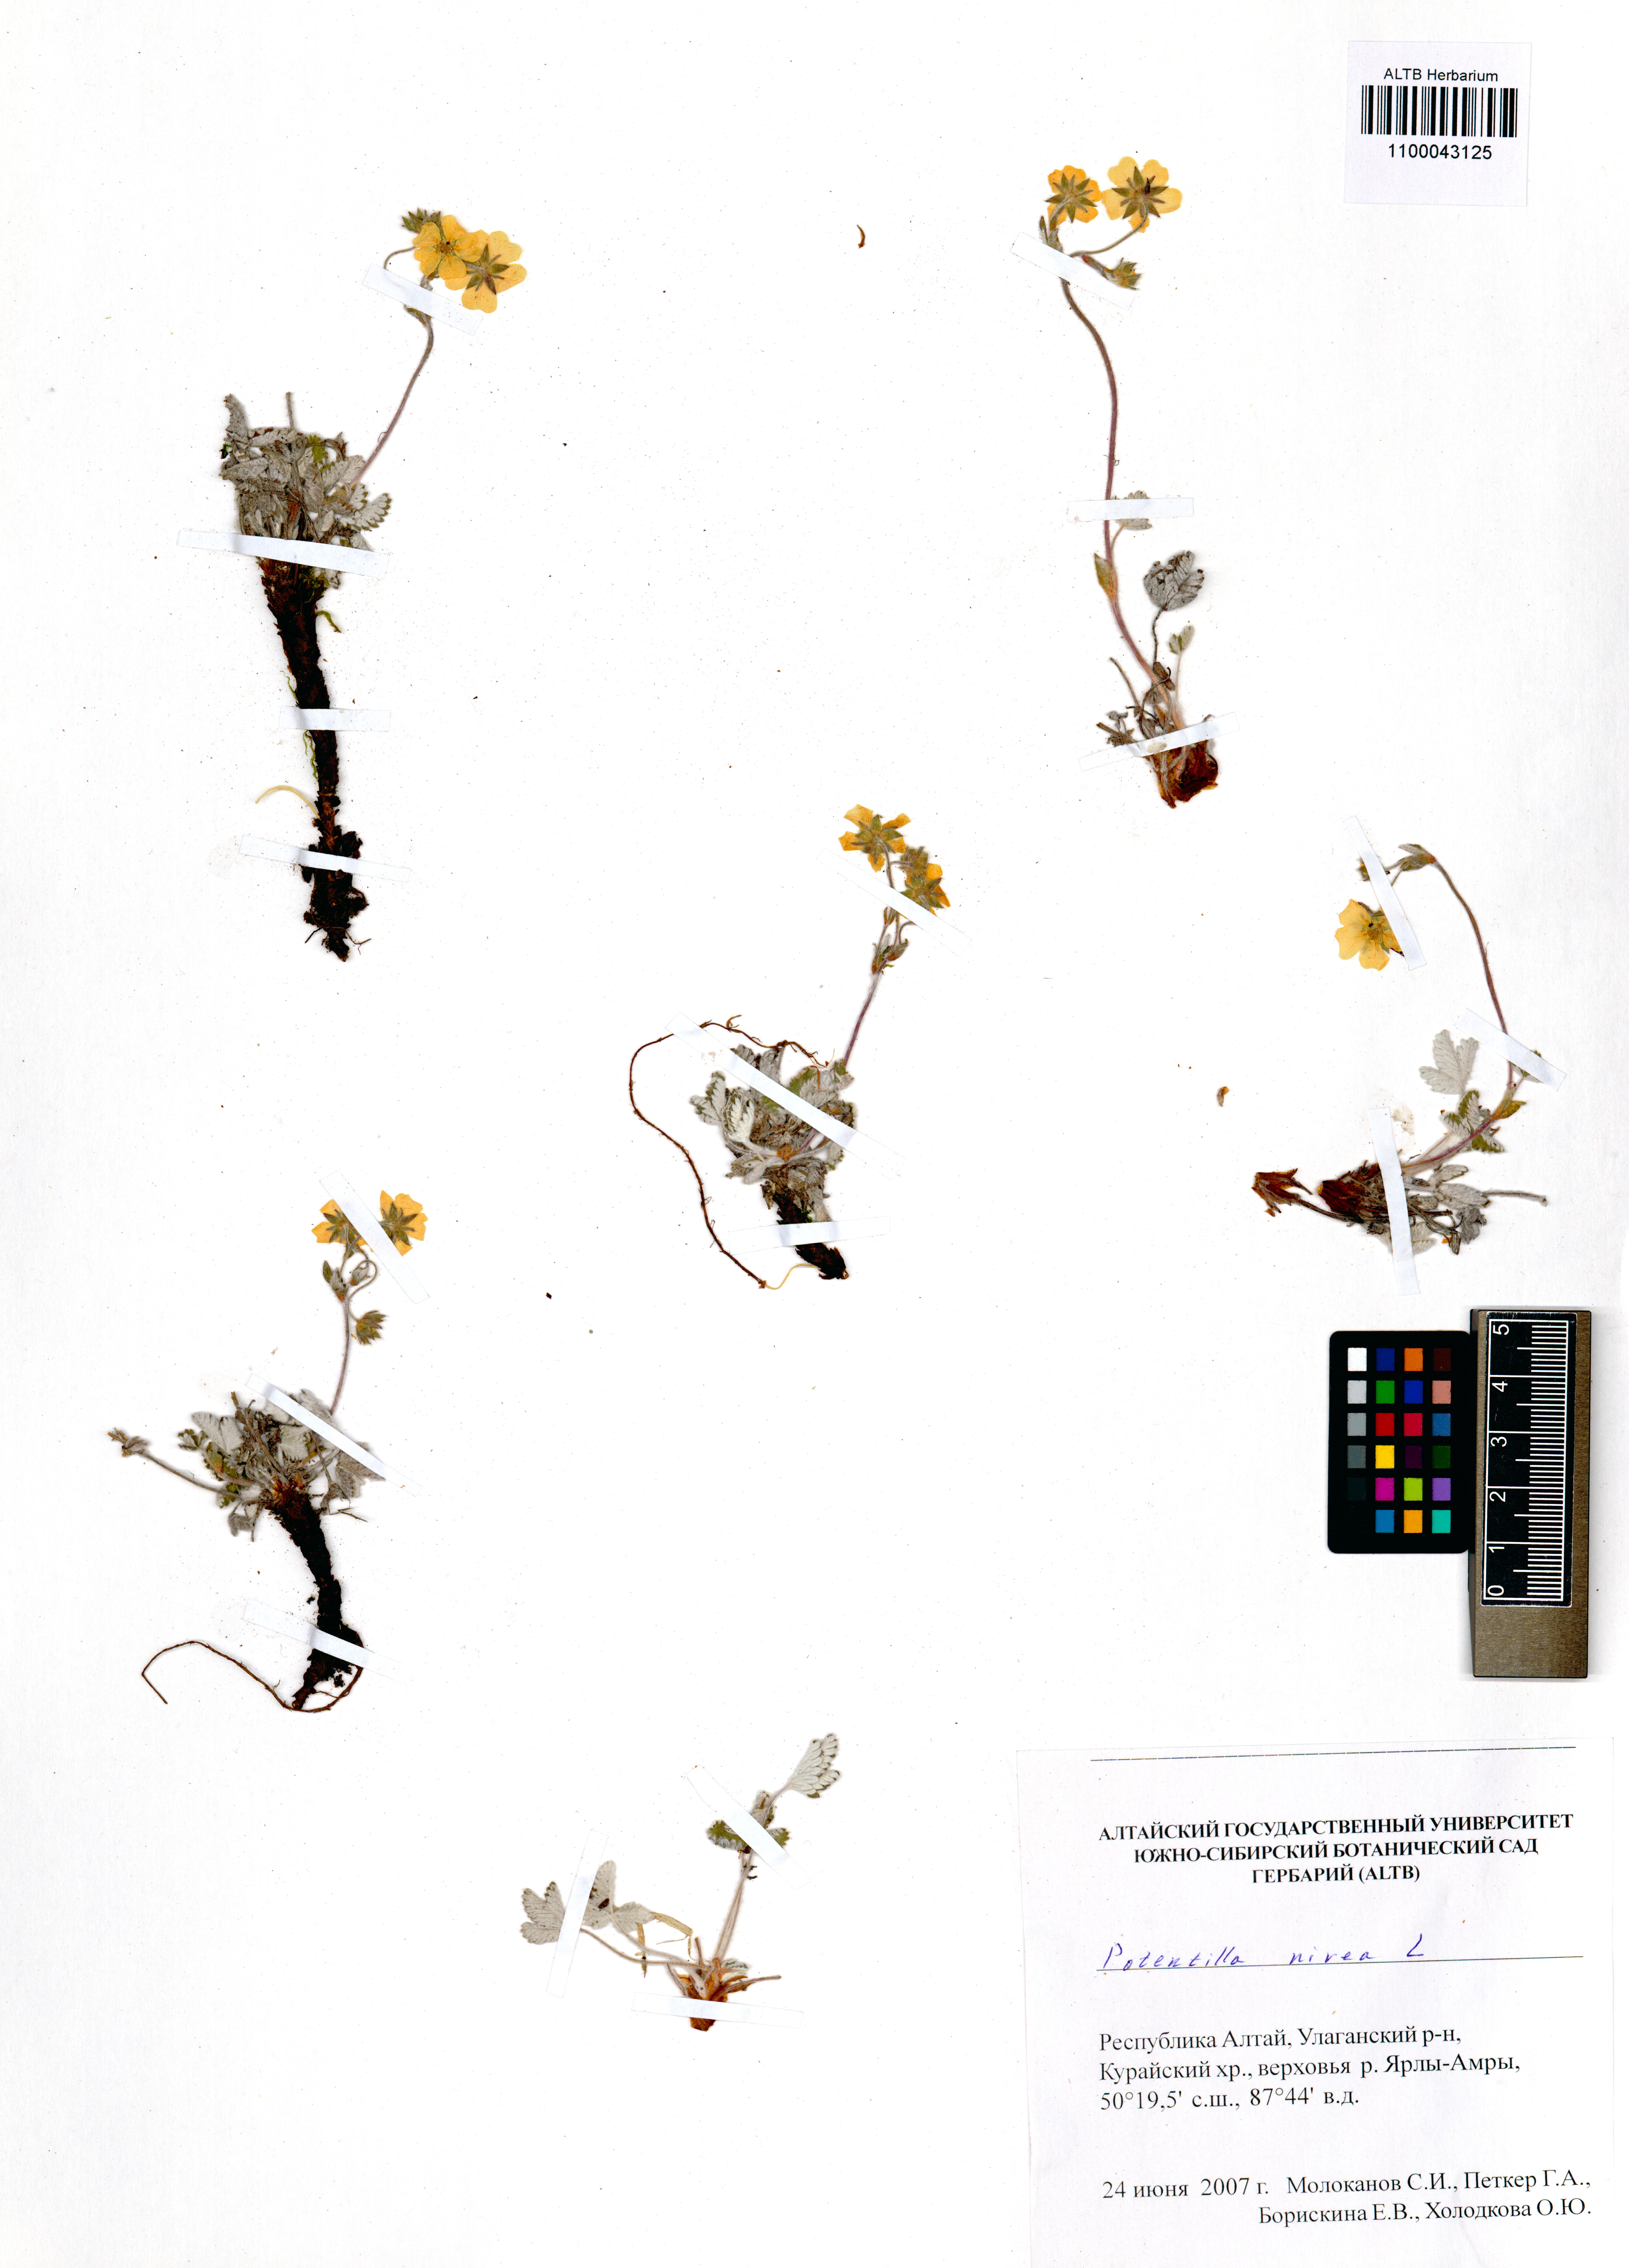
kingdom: Plantae
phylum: Tracheophyta
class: Magnoliopsida
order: Rosales
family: Rosaceae
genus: Potentilla
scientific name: Potentilla nivea
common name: Snow cinquefoil
